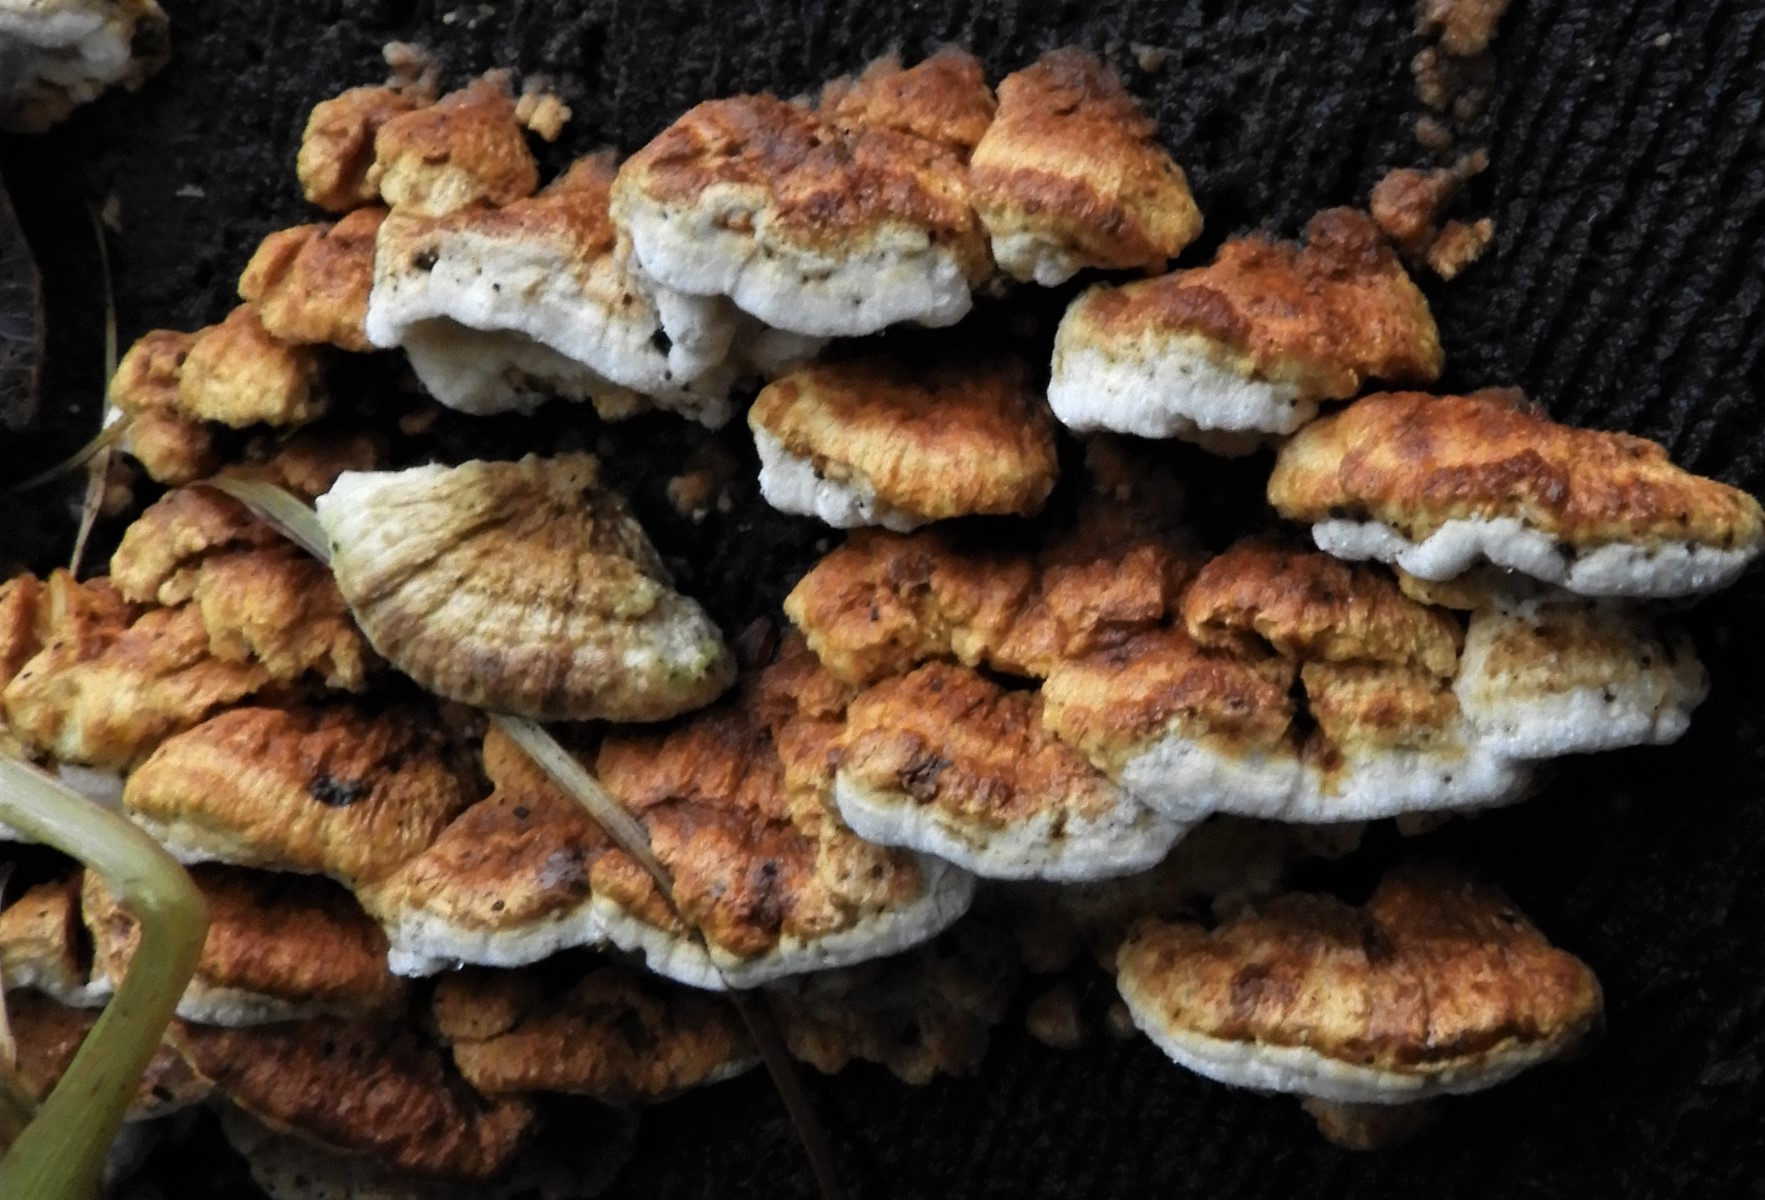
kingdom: Fungi
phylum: Basidiomycota
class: Agaricomycetes
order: Polyporales
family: Fomitopsidaceae
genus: Neoantrodia
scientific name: Neoantrodia serialis
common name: række-sejporesvamp
